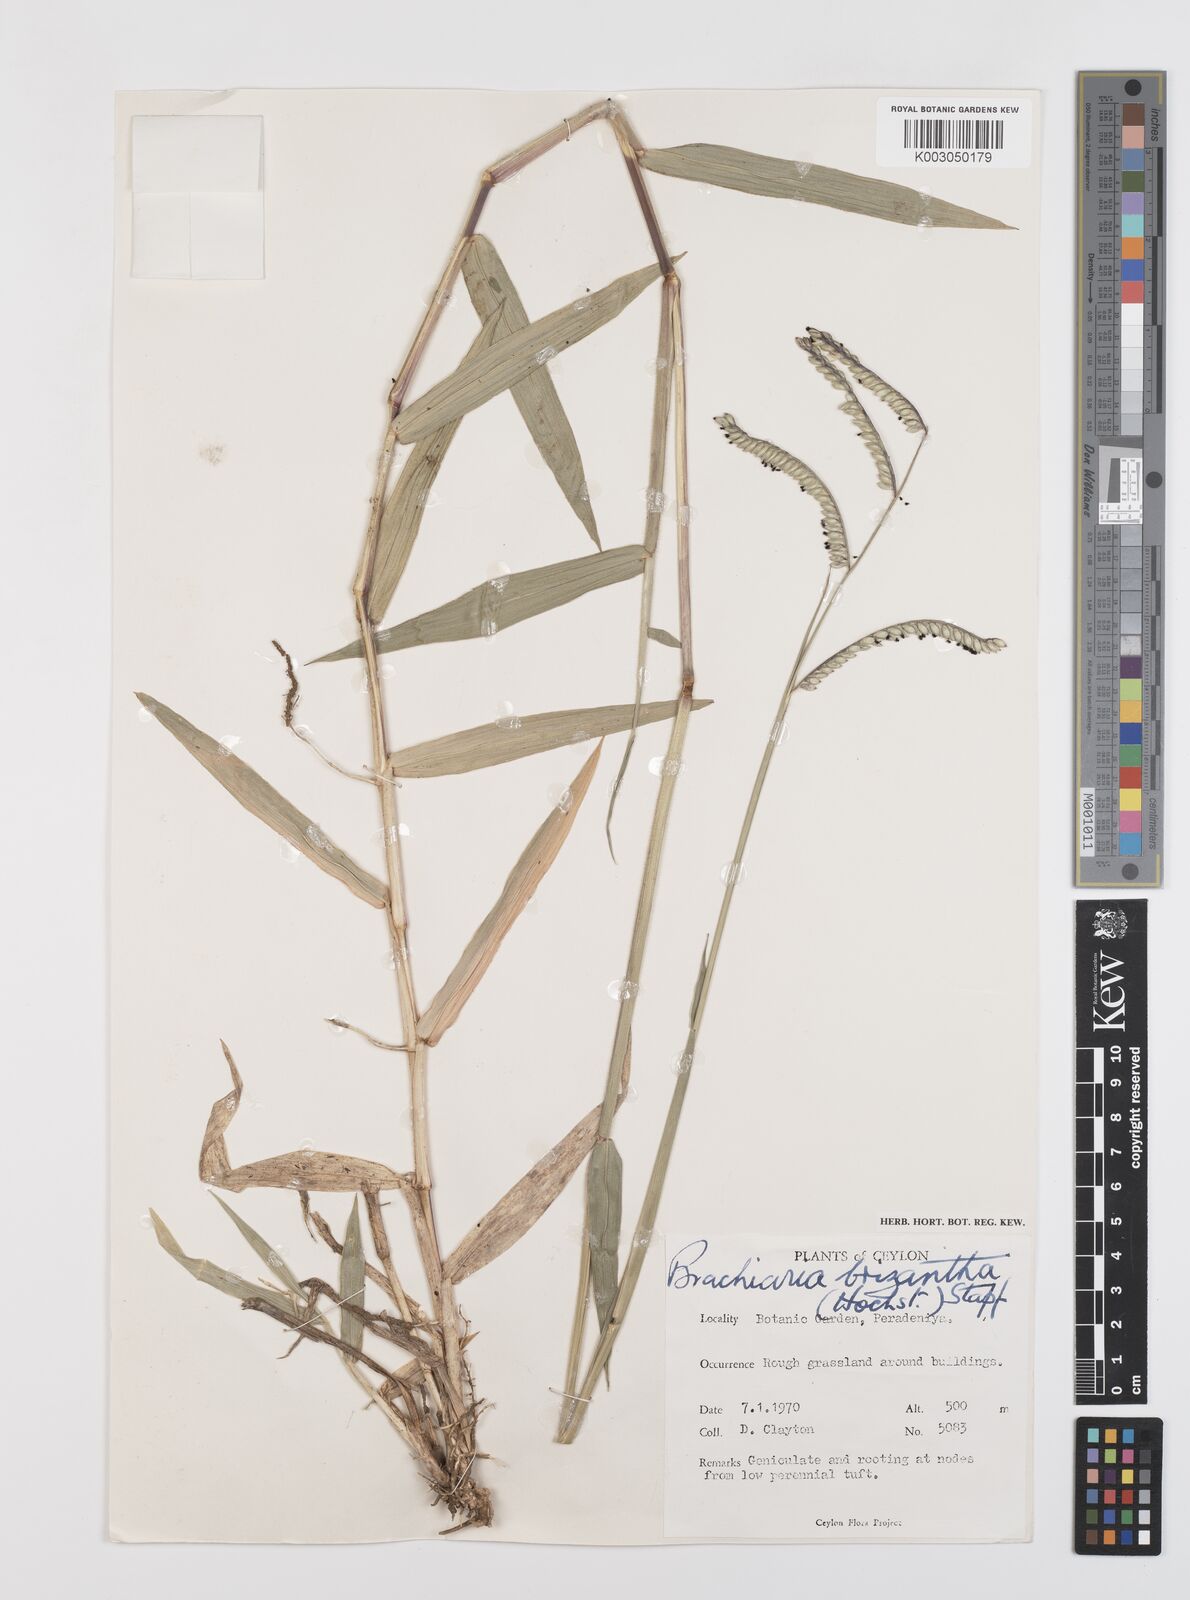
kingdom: Plantae
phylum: Tracheophyta
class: Liliopsida
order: Poales
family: Poaceae
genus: Urochloa
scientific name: Urochloa eminii
